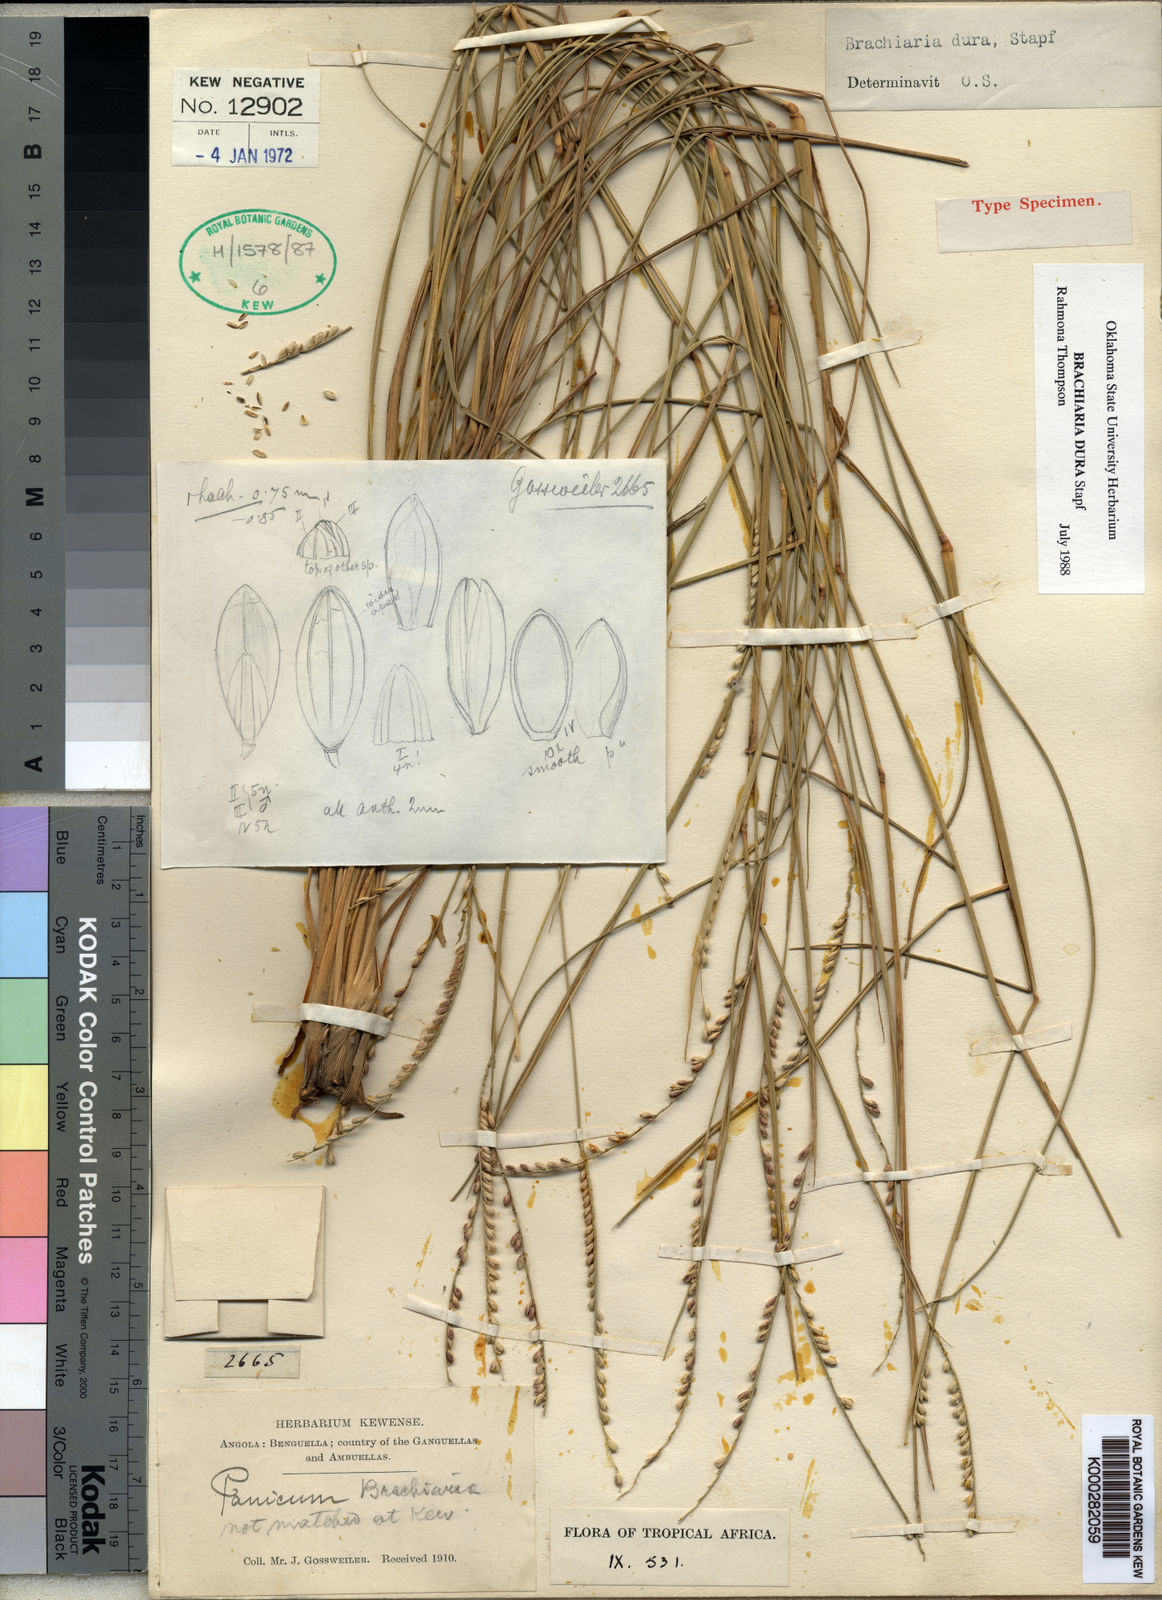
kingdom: Plantae
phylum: Tracheophyta
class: Liliopsida
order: Poales
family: Poaceae
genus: Urochloa
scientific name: Urochloa dura
